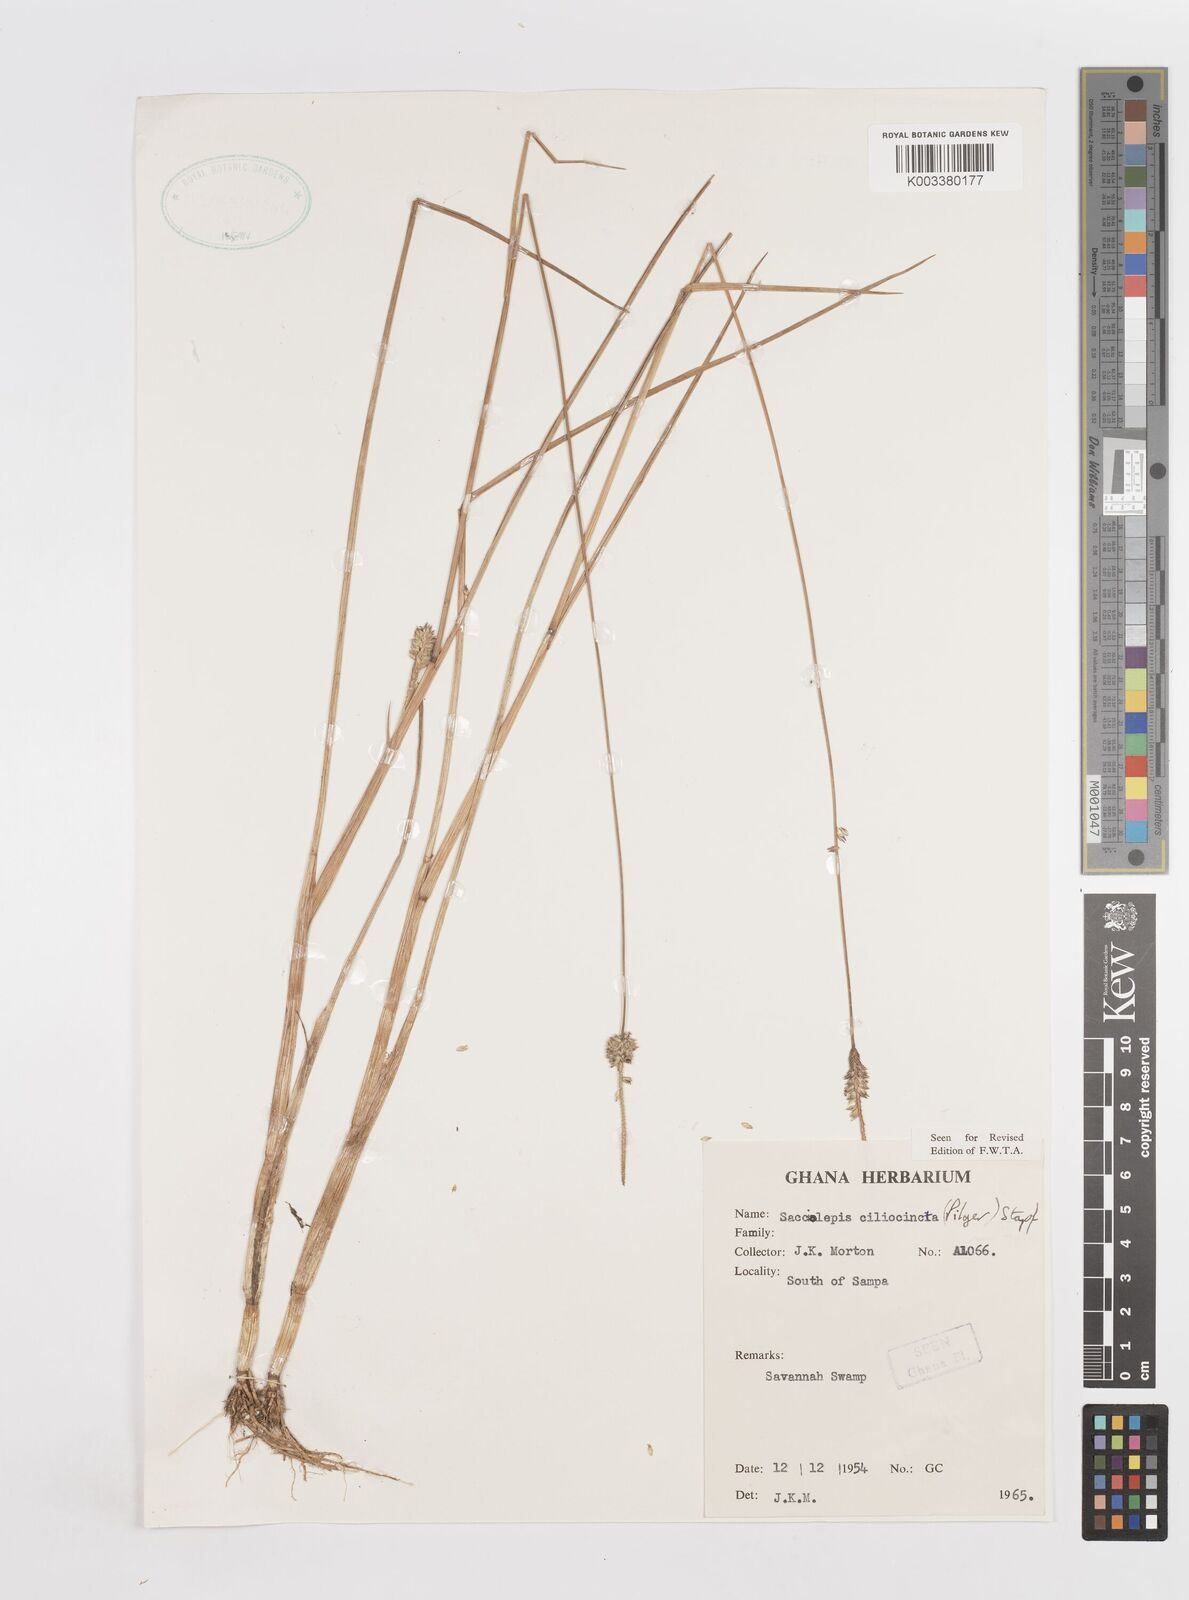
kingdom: Plantae
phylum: Tracheophyta
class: Liliopsida
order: Poales
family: Poaceae
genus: Sacciolepis
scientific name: Sacciolepis ciliocincta
